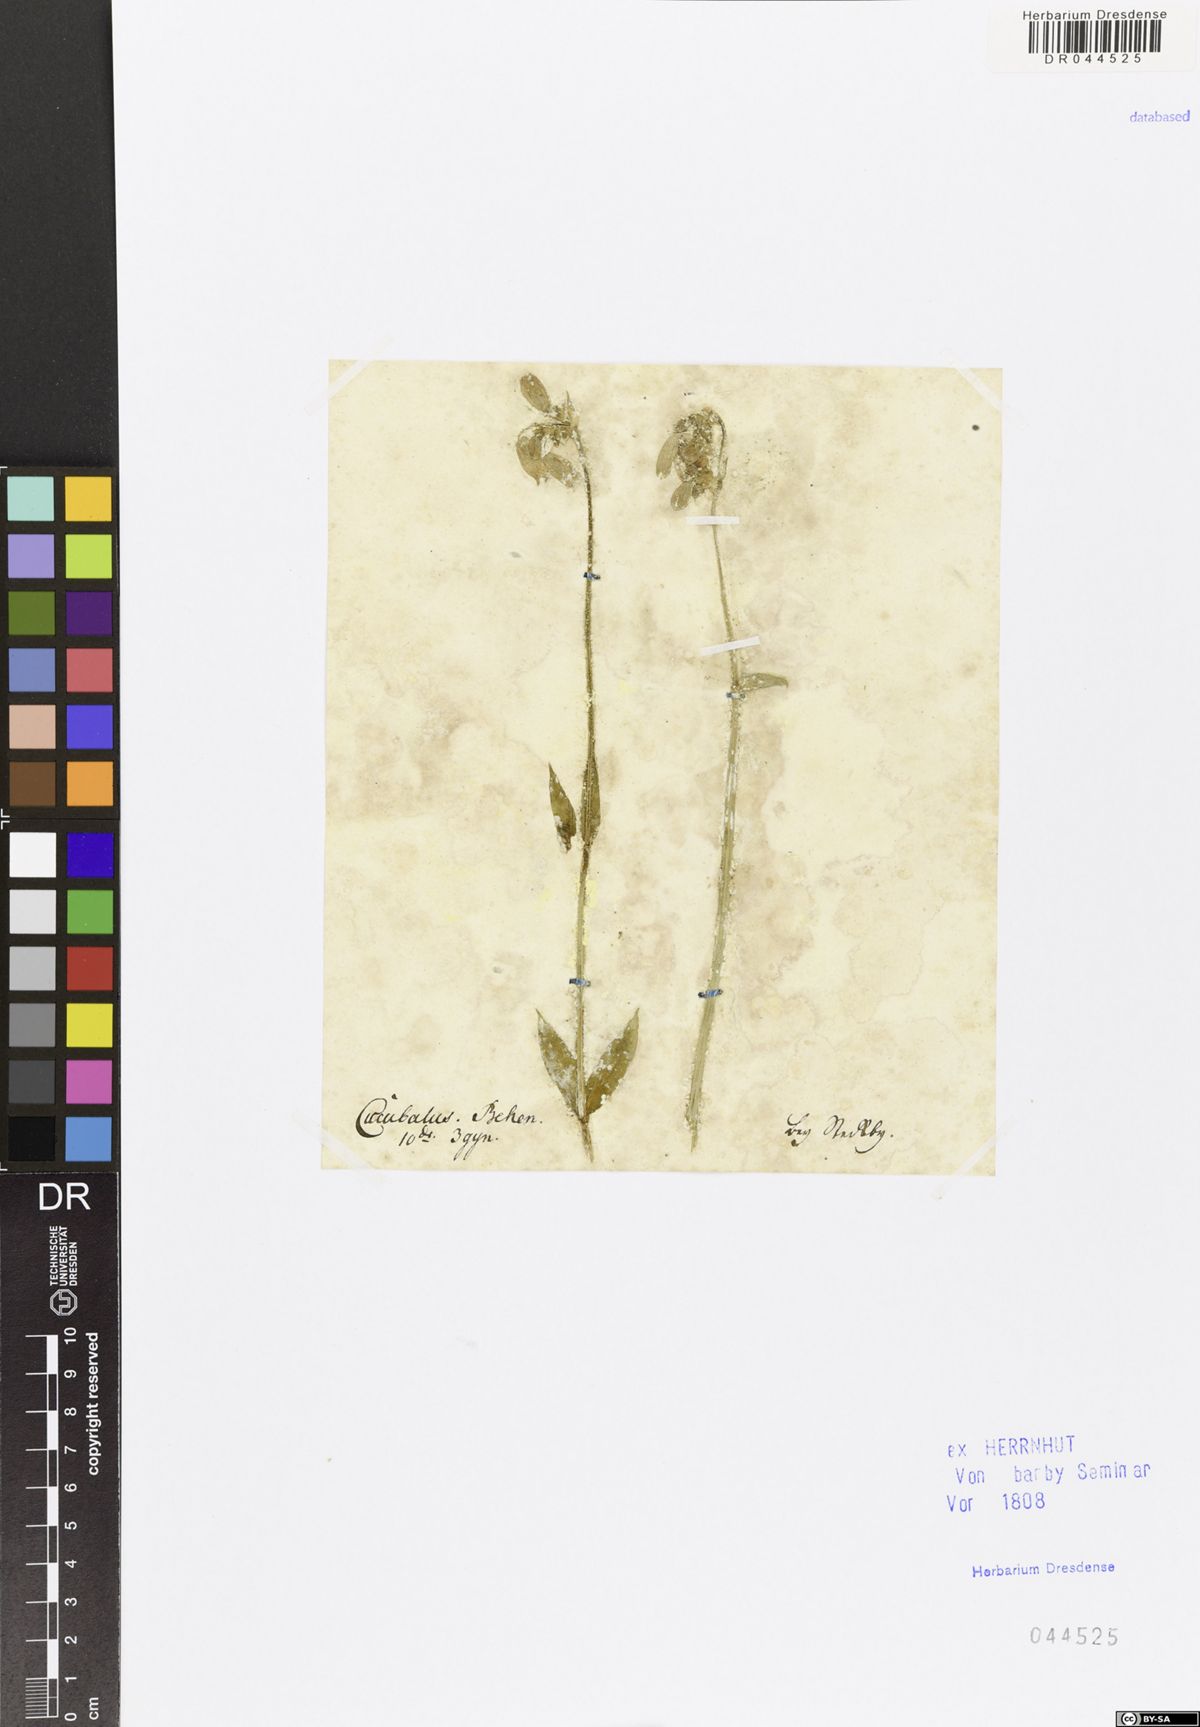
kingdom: Plantae
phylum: Tracheophyta
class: Magnoliopsida
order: Caryophyllales
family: Caryophyllaceae
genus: Silene
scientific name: Silene vulgaris
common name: Bladder campion
